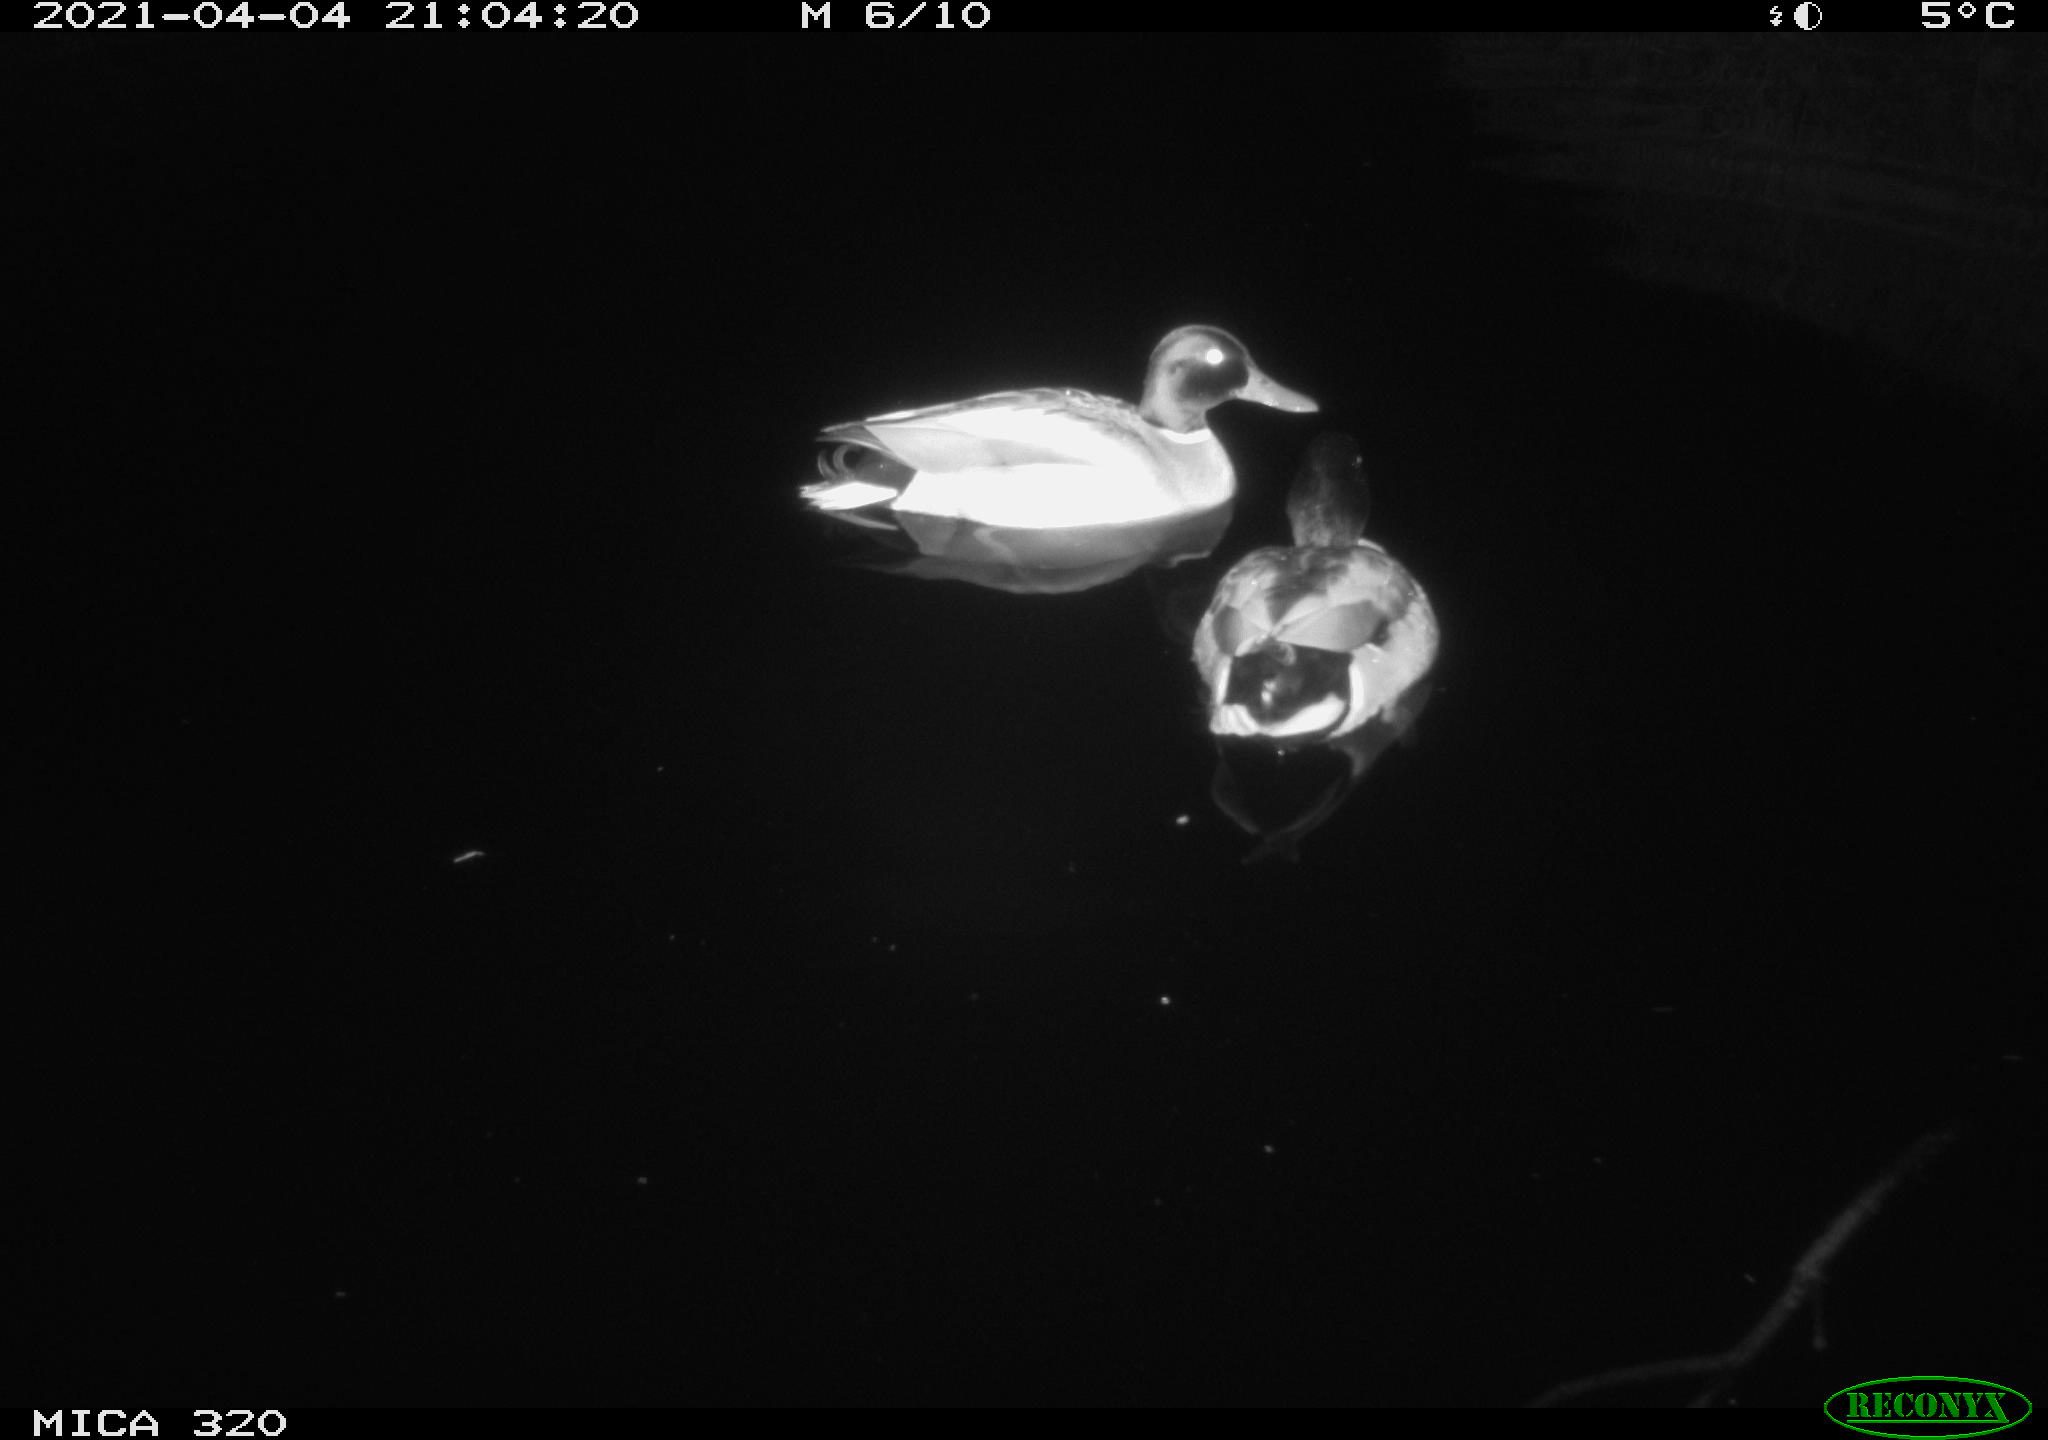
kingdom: Animalia
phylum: Chordata
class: Aves
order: Anseriformes
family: Anatidae
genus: Anas
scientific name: Anas platyrhynchos
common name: Mallard
